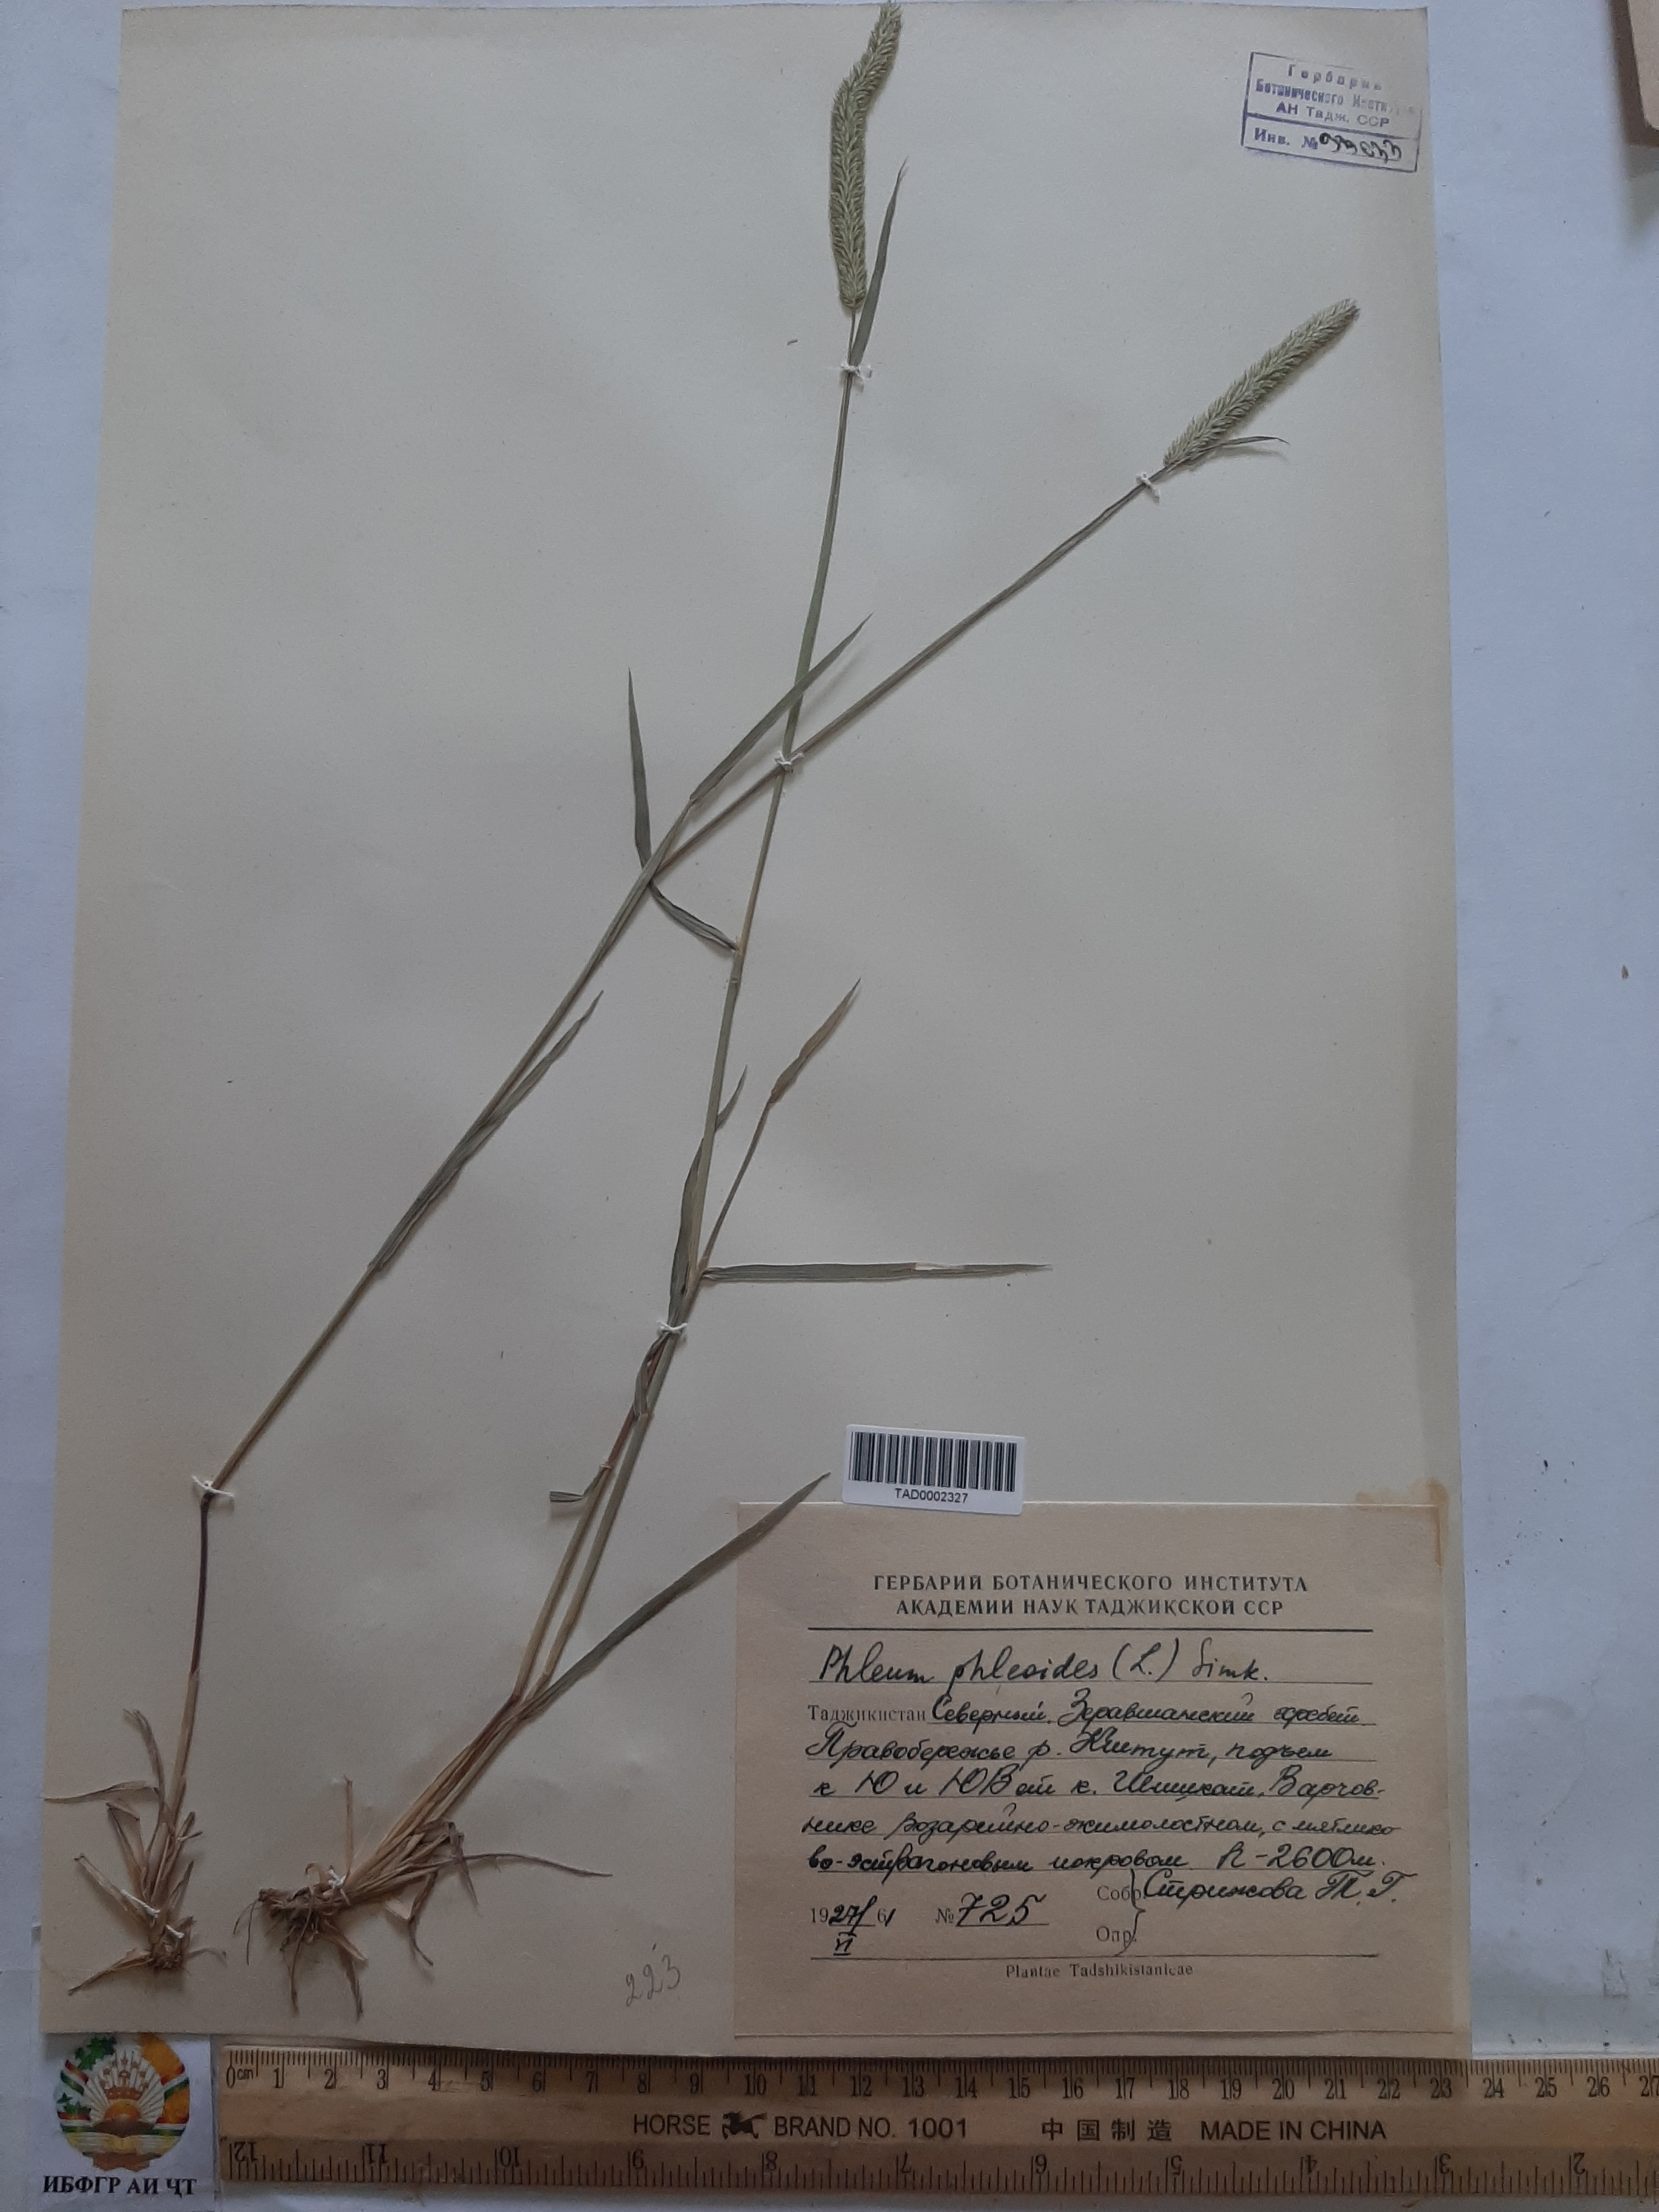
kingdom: Plantae
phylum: Tracheophyta
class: Liliopsida
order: Poales
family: Poaceae
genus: Phleum
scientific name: Phleum phleoides
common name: Purple-stem cat's-tail
